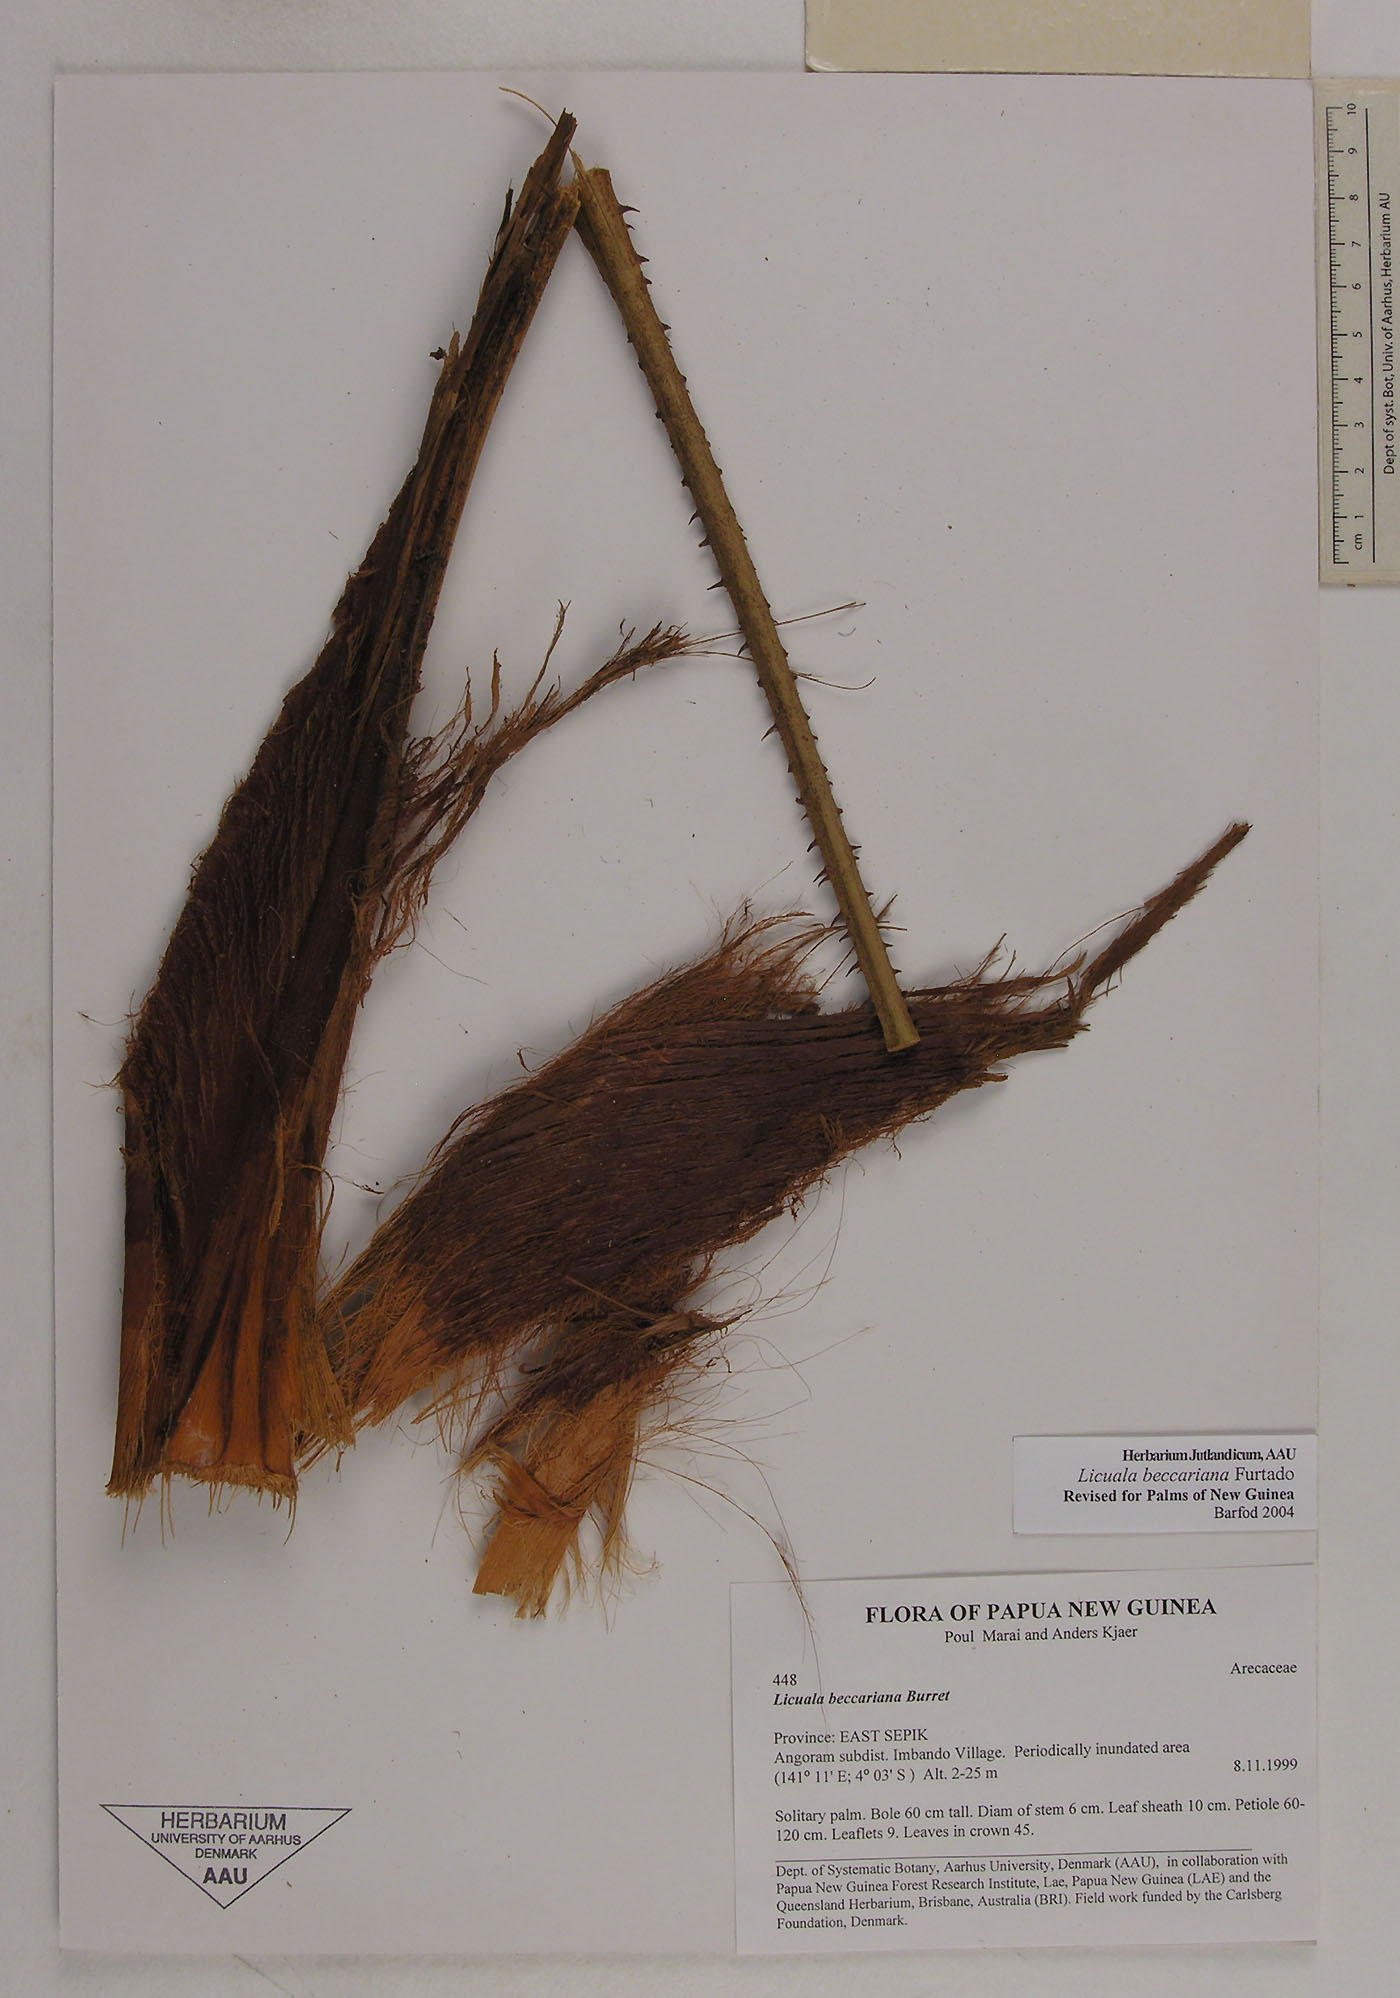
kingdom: Plantae
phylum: Tracheophyta
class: Liliopsida
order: Arecales
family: Arecaceae
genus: Licuala
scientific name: Licuala beccariana
